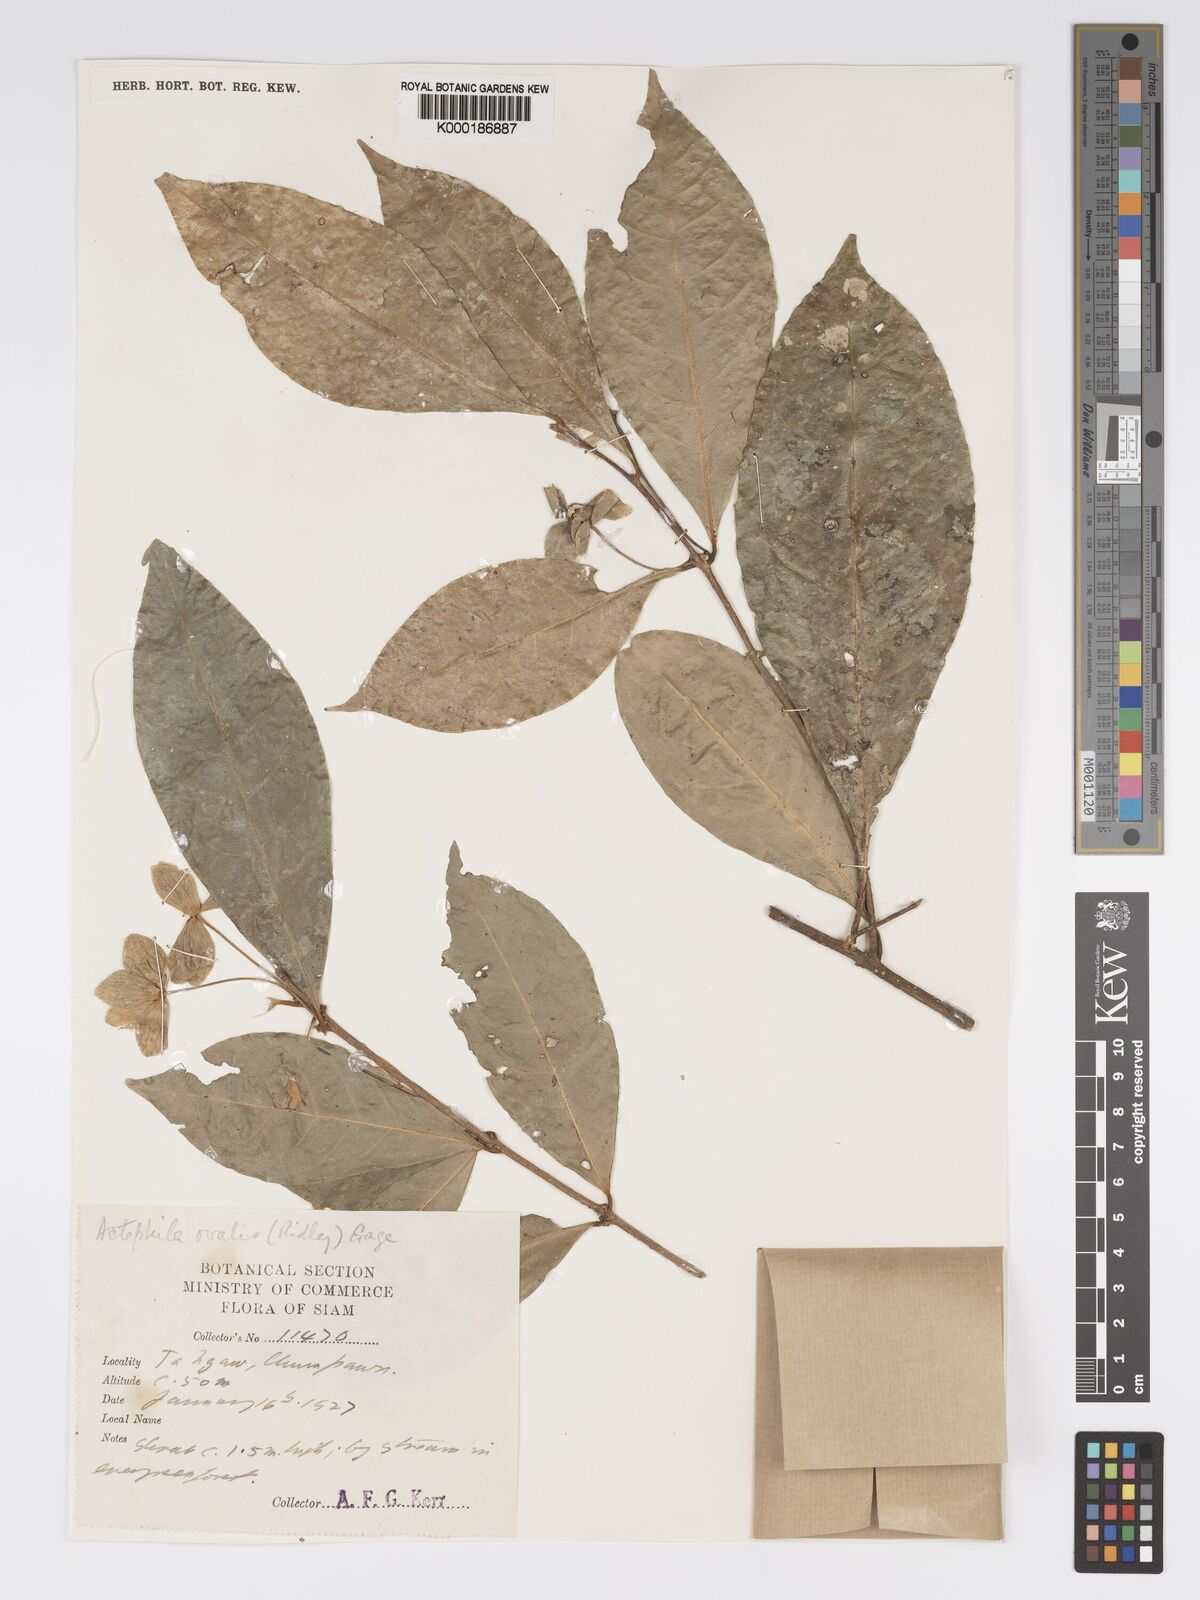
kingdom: Plantae
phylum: Tracheophyta
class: Magnoliopsida
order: Malpighiales
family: Phyllanthaceae
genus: Actephila
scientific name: Actephila ovalis
